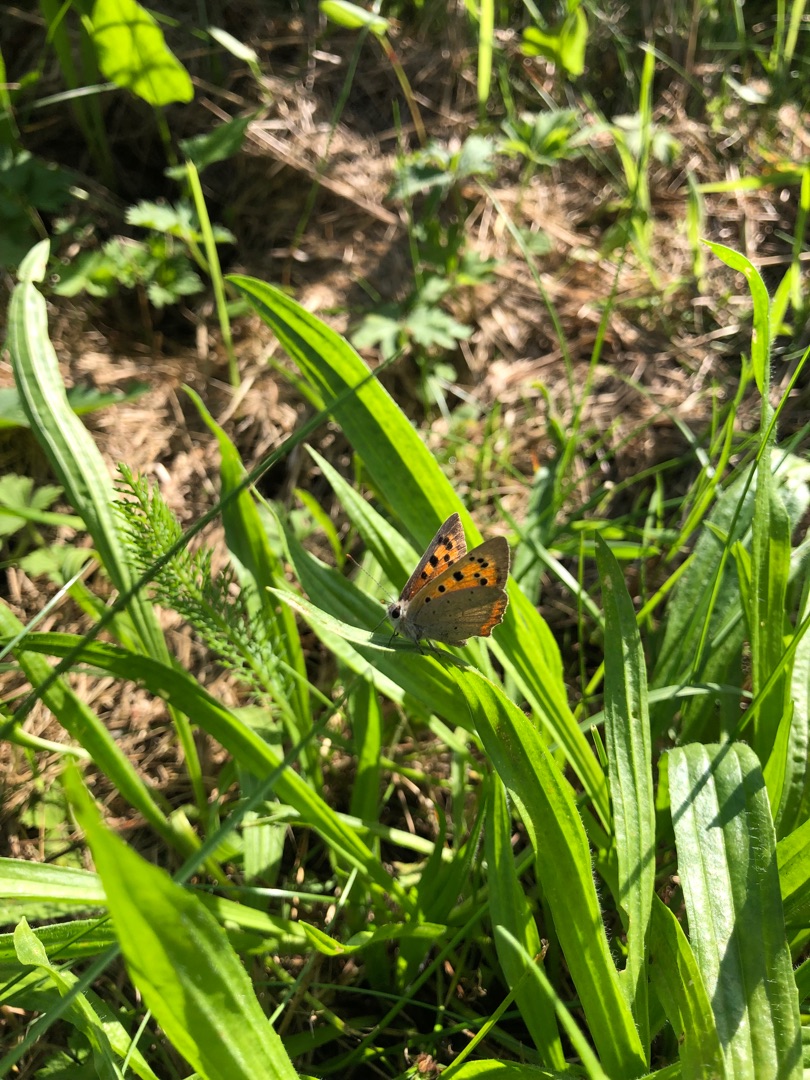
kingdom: Animalia
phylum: Arthropoda
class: Insecta
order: Lepidoptera
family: Lycaenidae
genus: Lycaena
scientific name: Lycaena phlaeas
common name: Lille ildfugl
